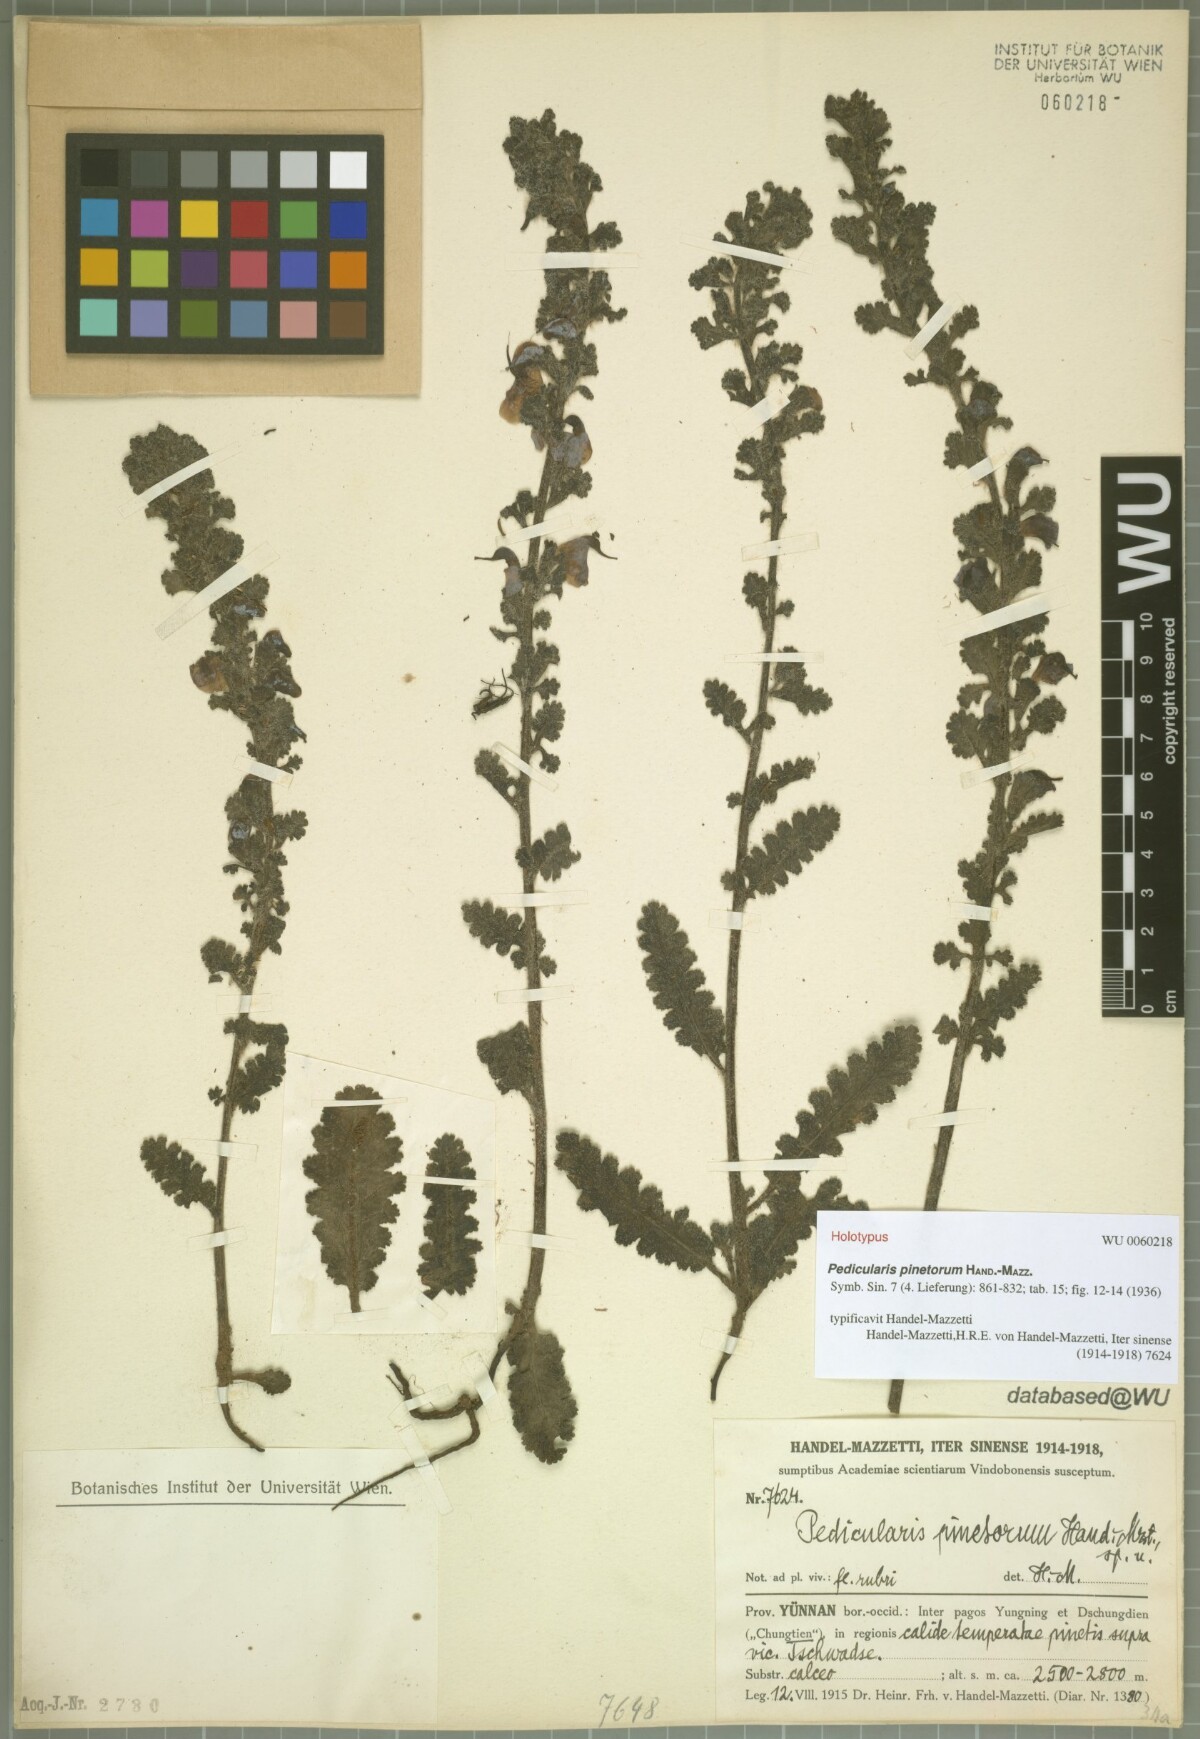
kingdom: Plantae
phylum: Tracheophyta
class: Magnoliopsida
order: Lamiales
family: Orobanchaceae
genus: Pedicularis
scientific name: Pedicularis pinetorum
